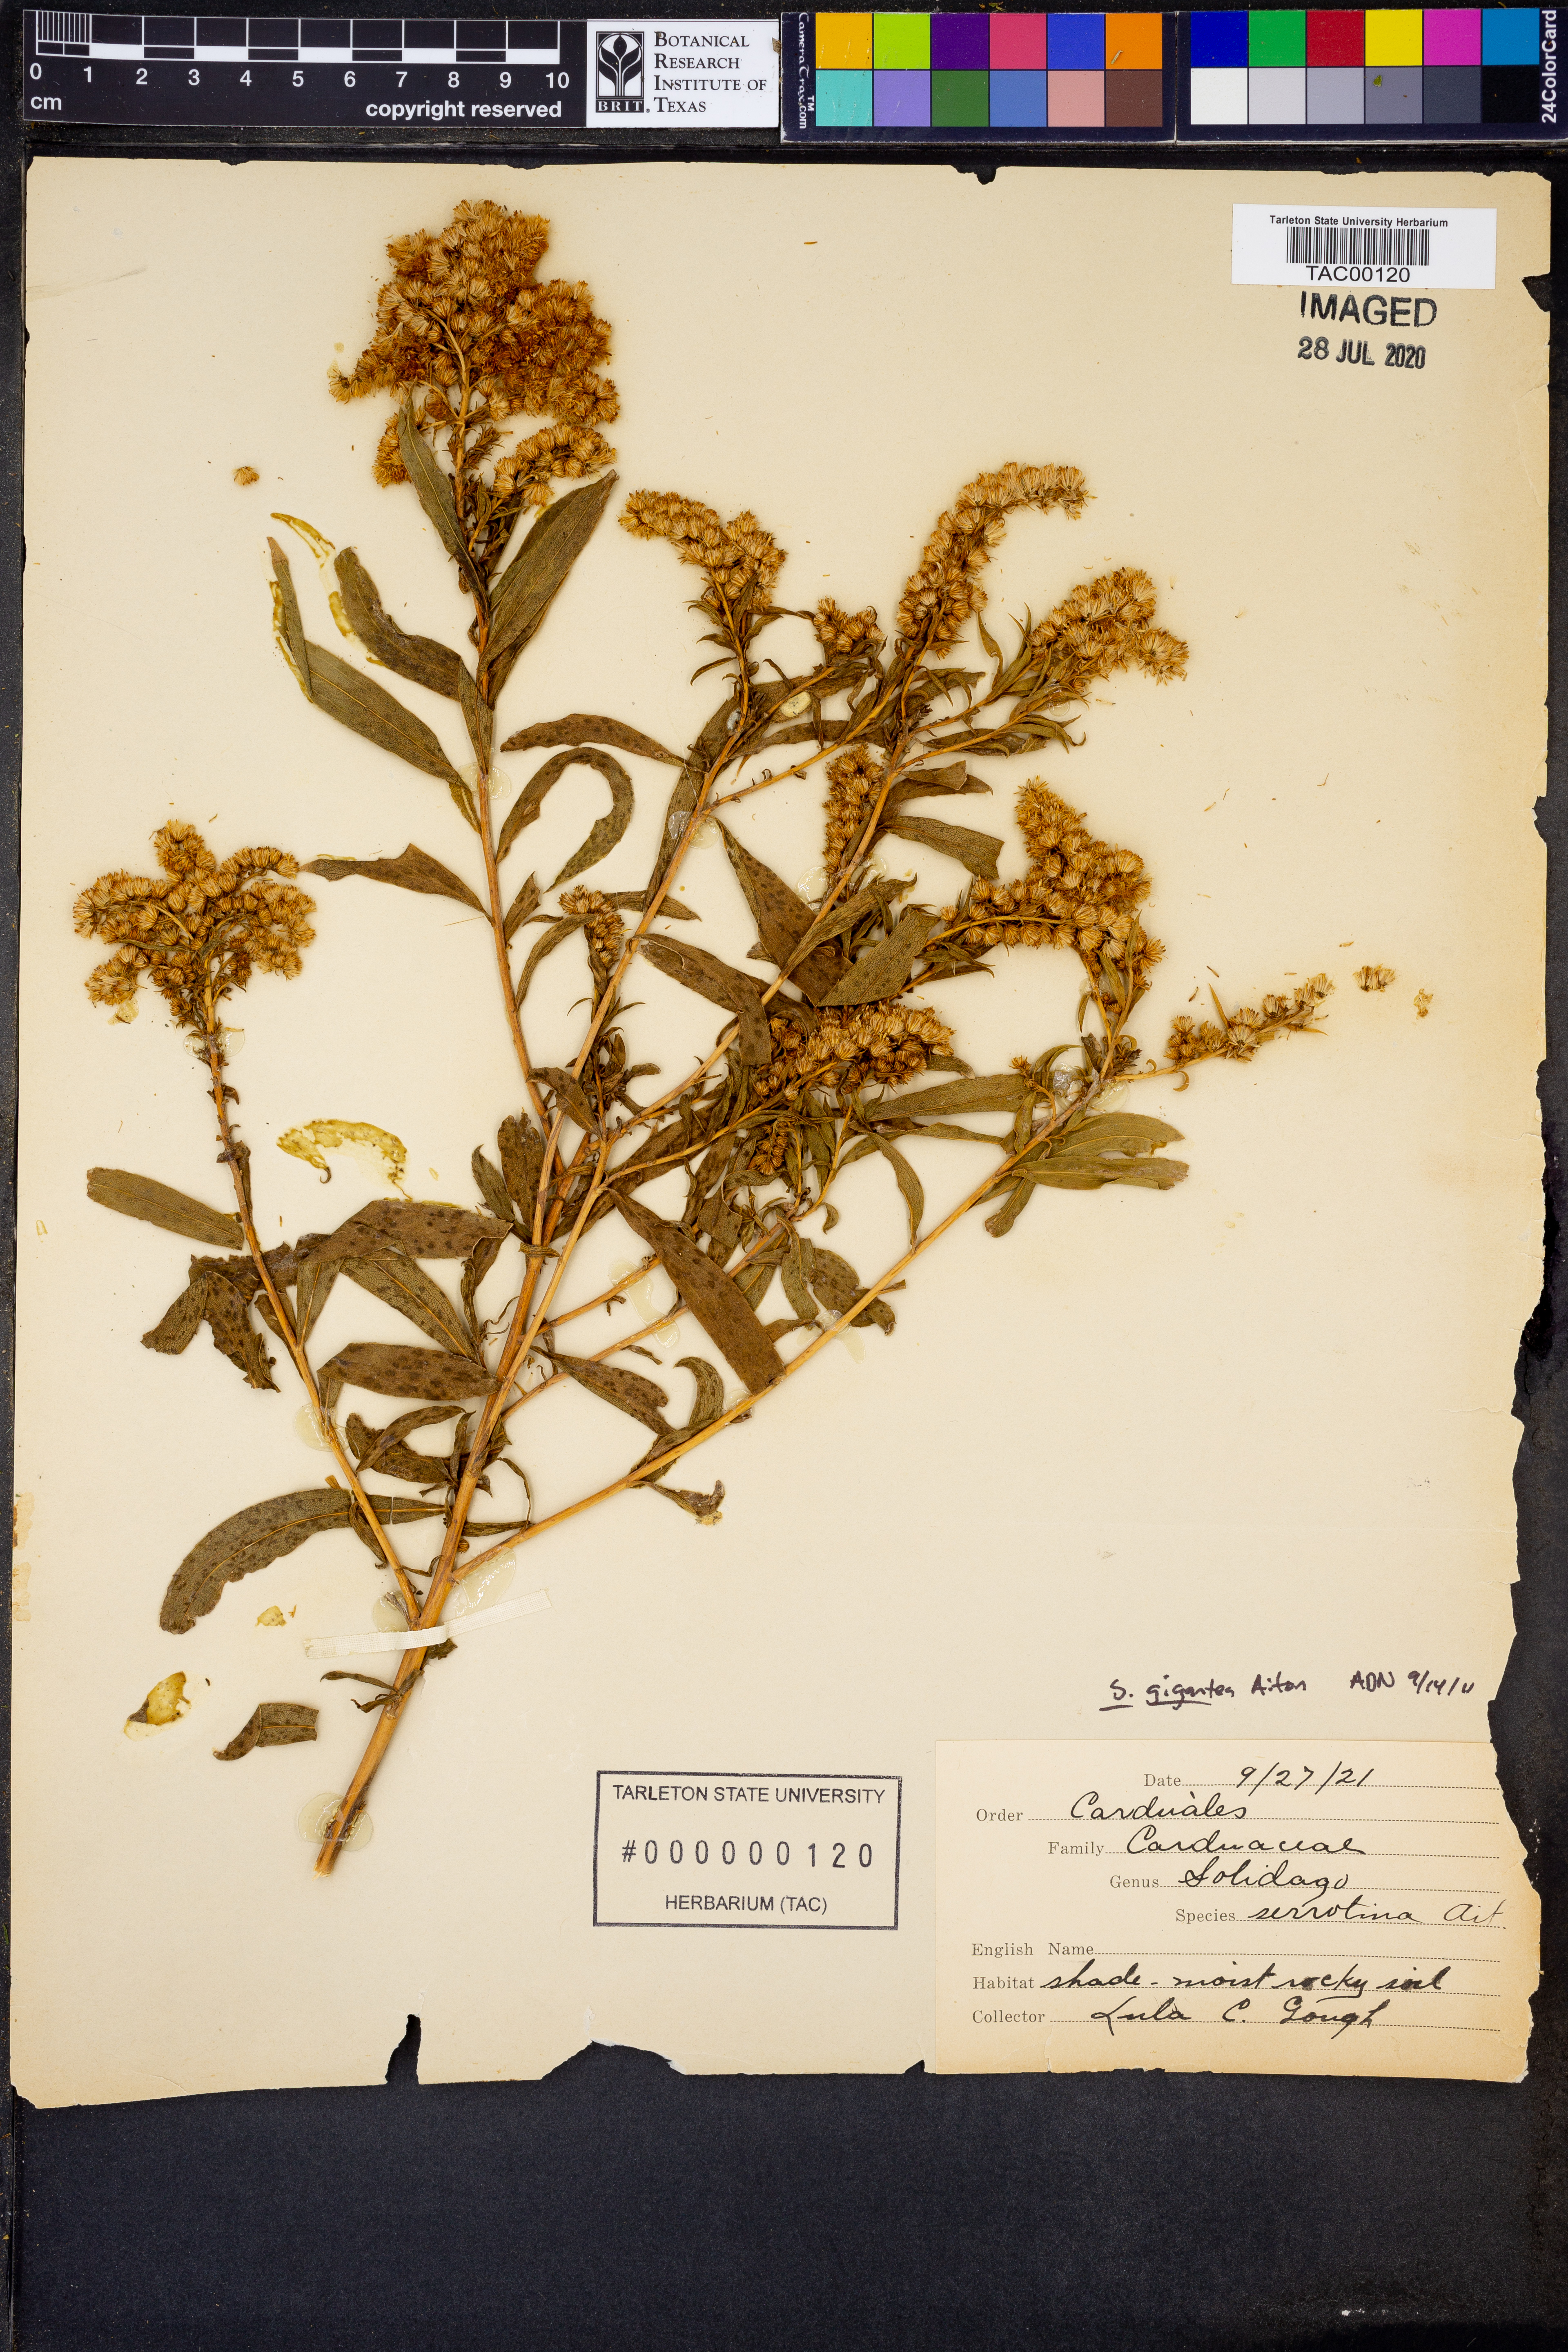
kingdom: Plantae
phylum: Tracheophyta
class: Magnoliopsida
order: Asterales
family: Asteraceae
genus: Solidago
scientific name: Solidago gigantea
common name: Giant goldenrod
